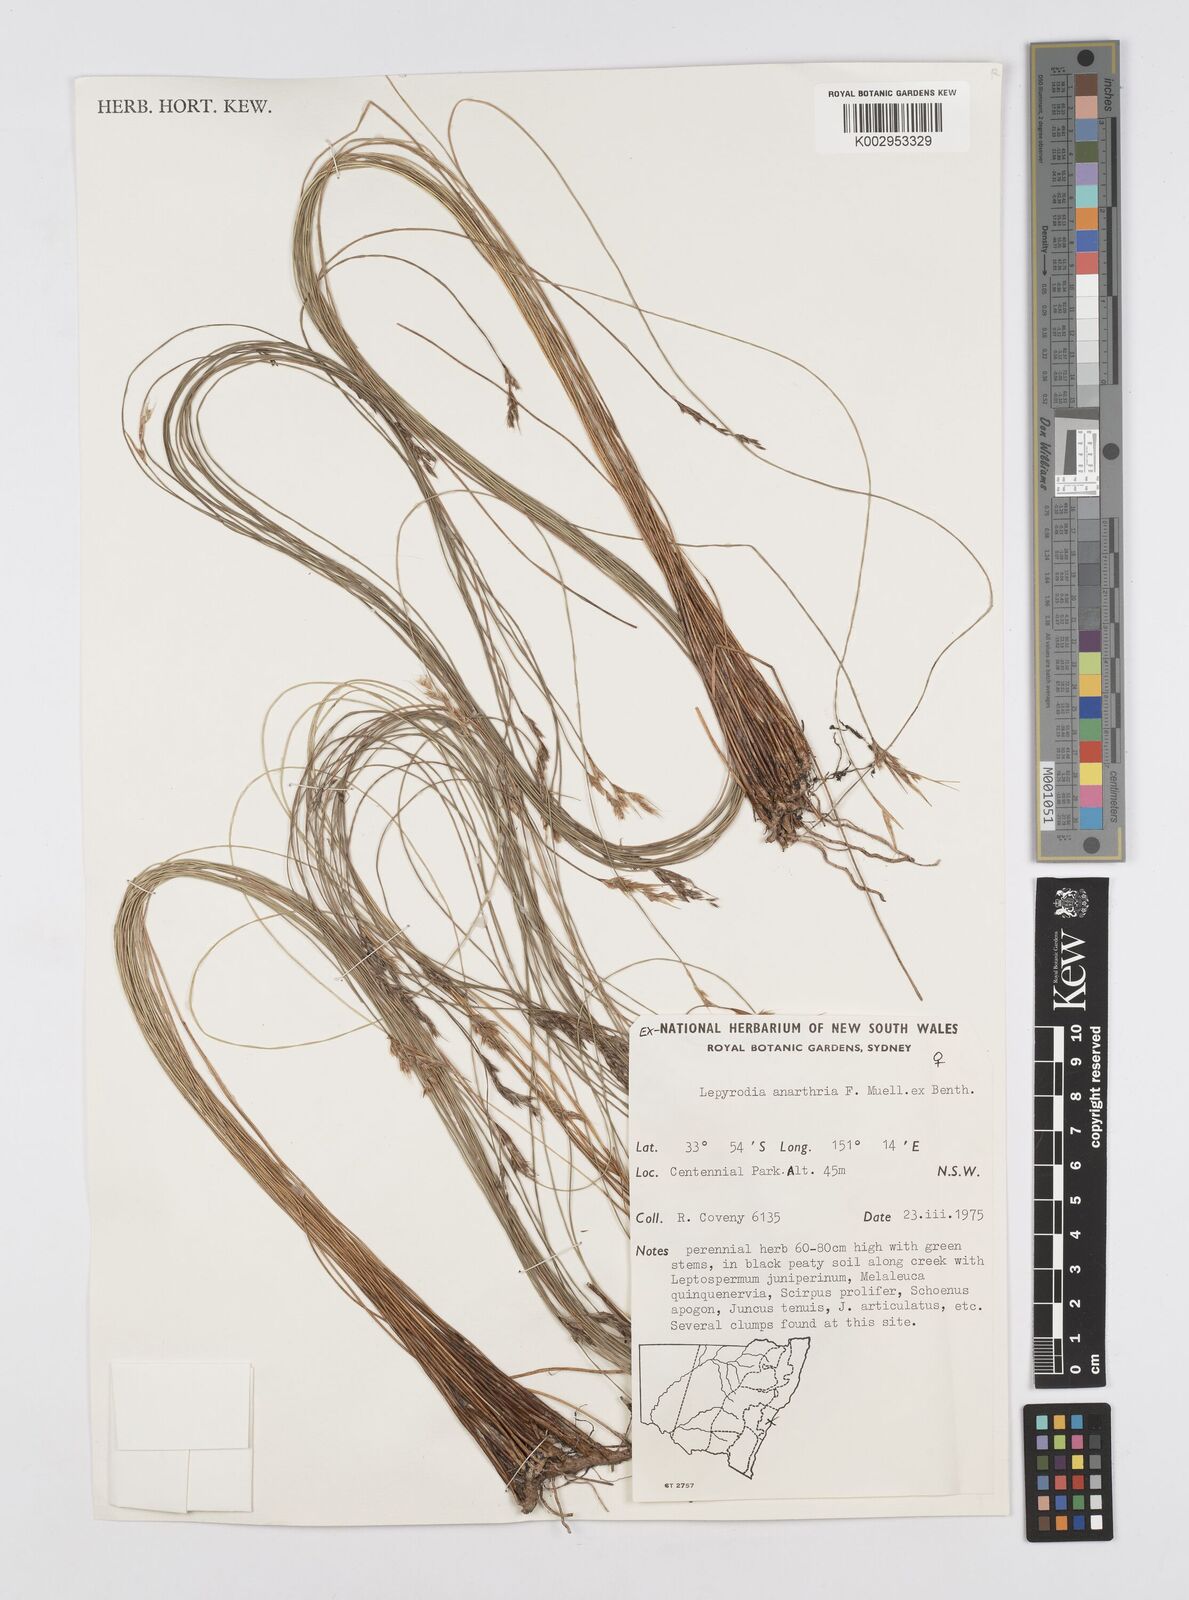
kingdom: Plantae
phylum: Tracheophyta
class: Liliopsida
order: Poales
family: Restionaceae
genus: Lepyrodia
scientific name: Lepyrodia anarthria
